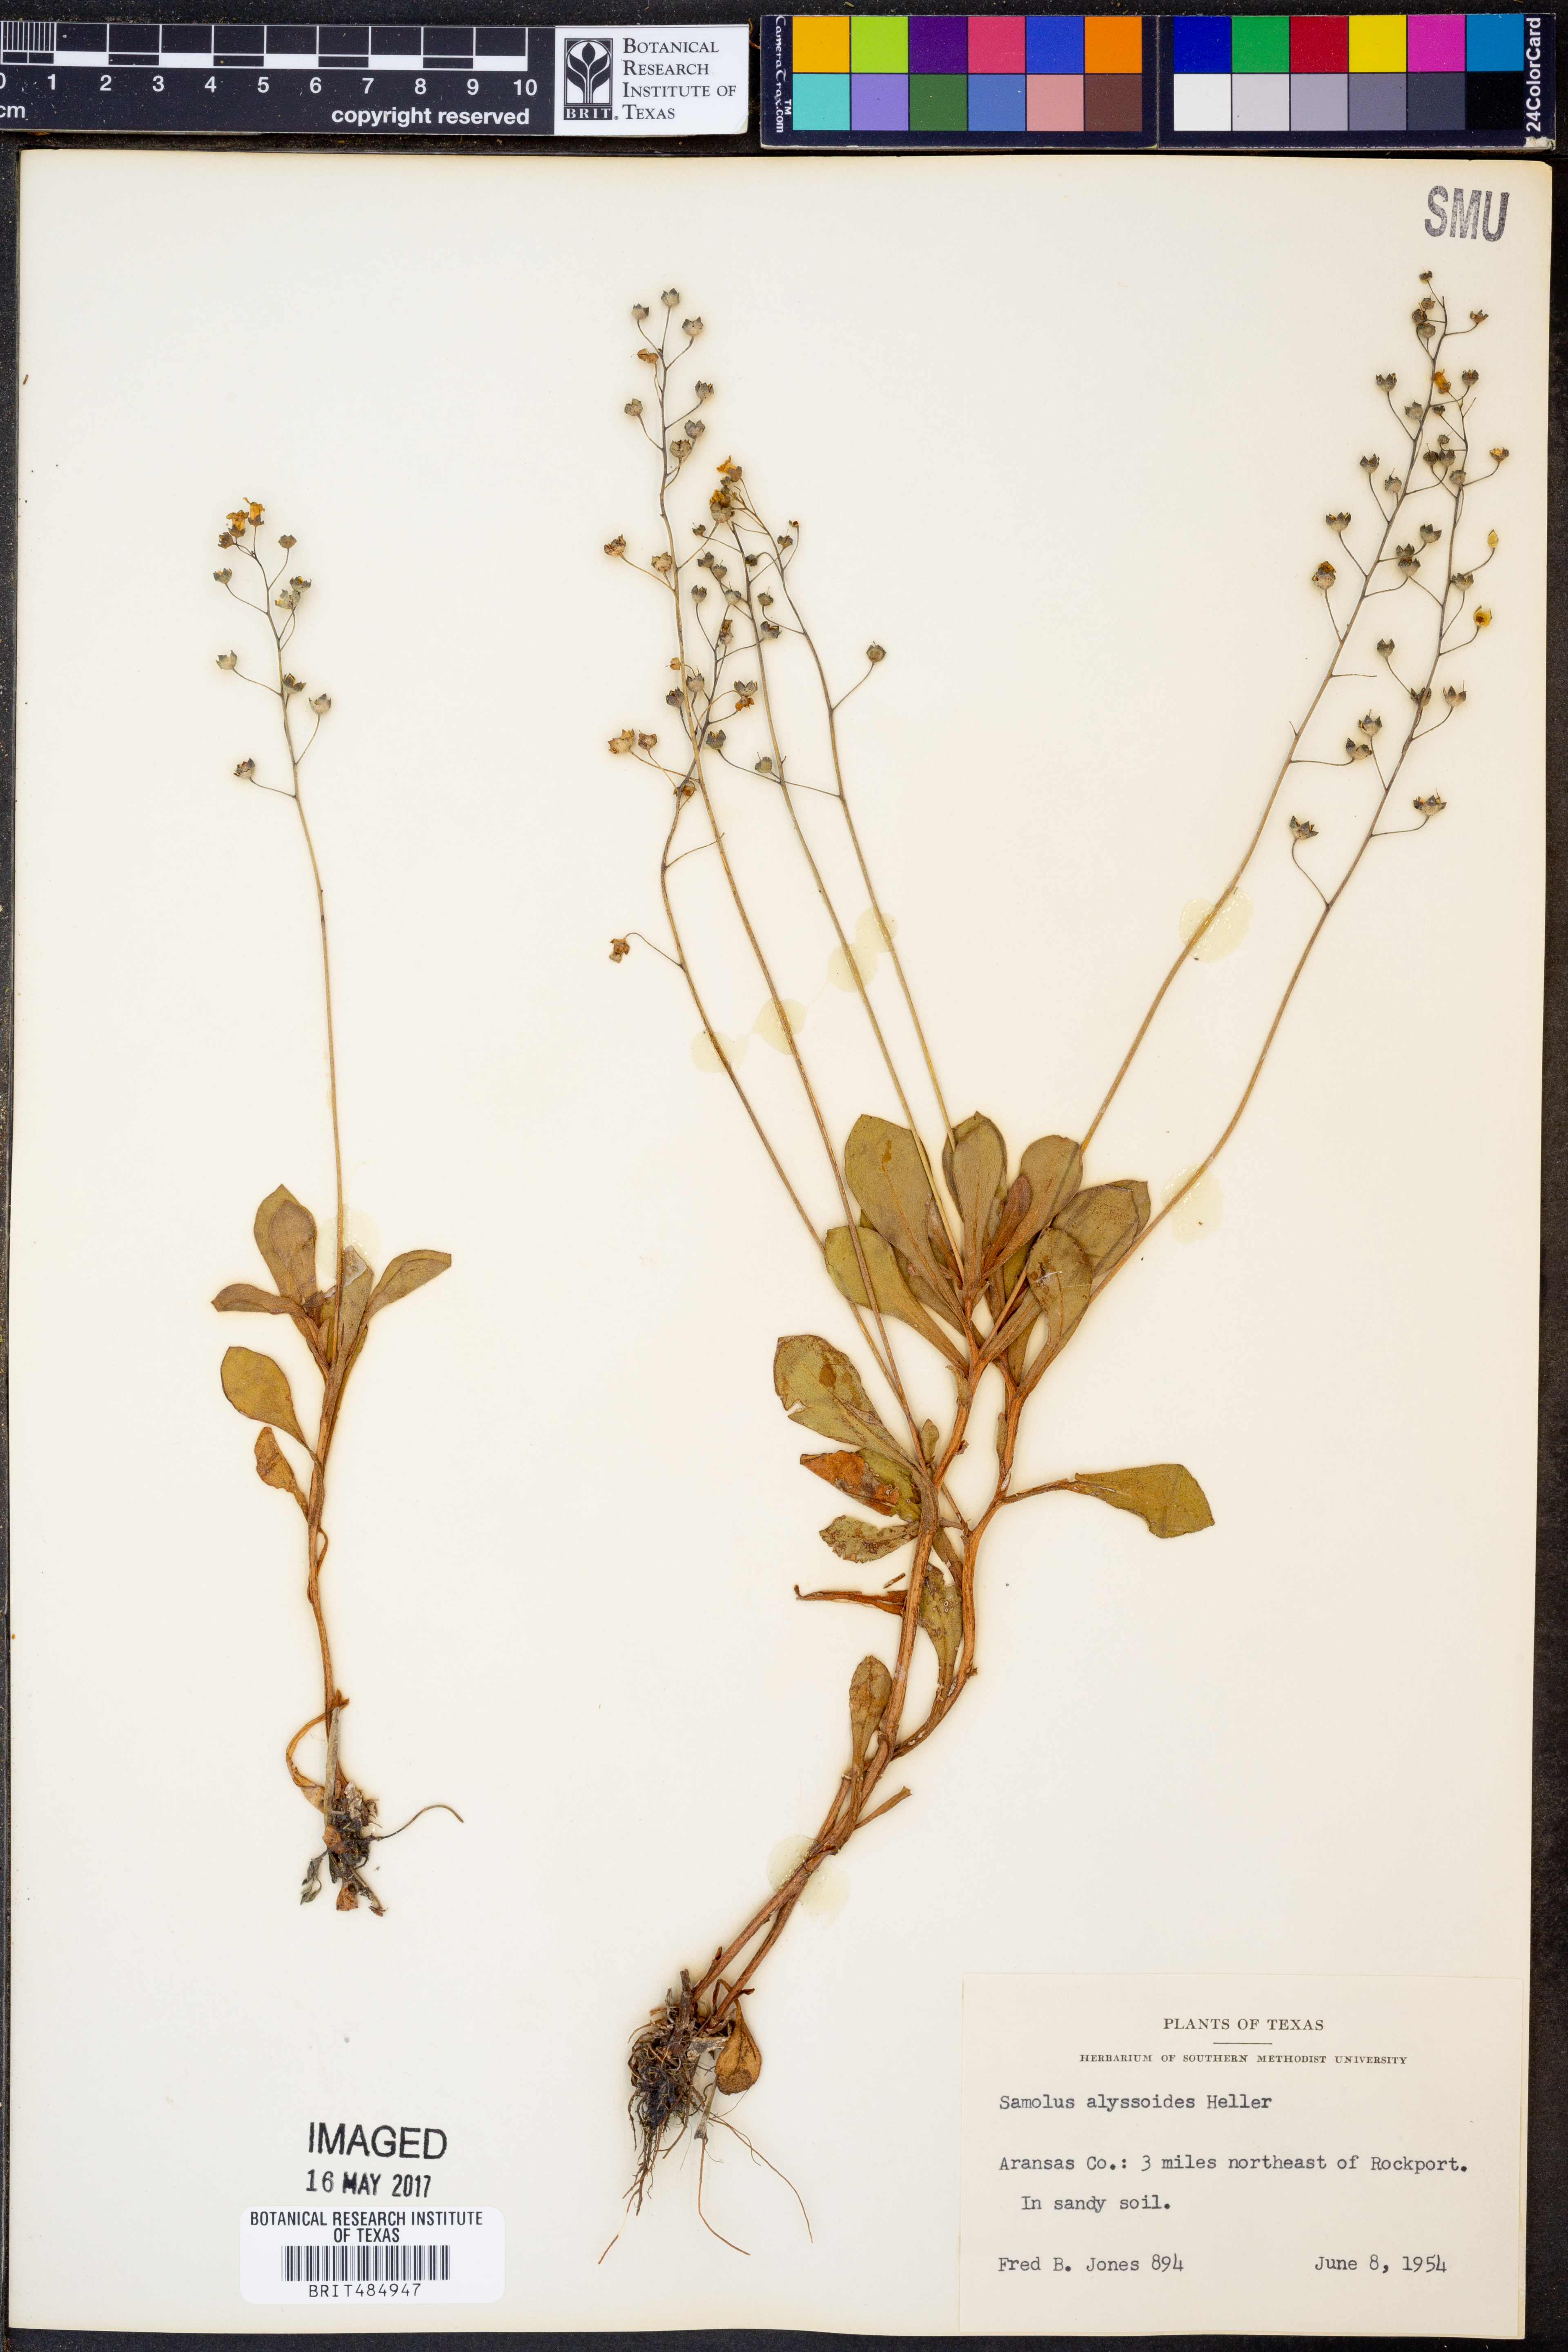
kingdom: Plantae
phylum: Tracheophyta
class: Magnoliopsida
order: Ericales
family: Primulaceae
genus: Samolus
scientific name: Samolus ebracteatus
